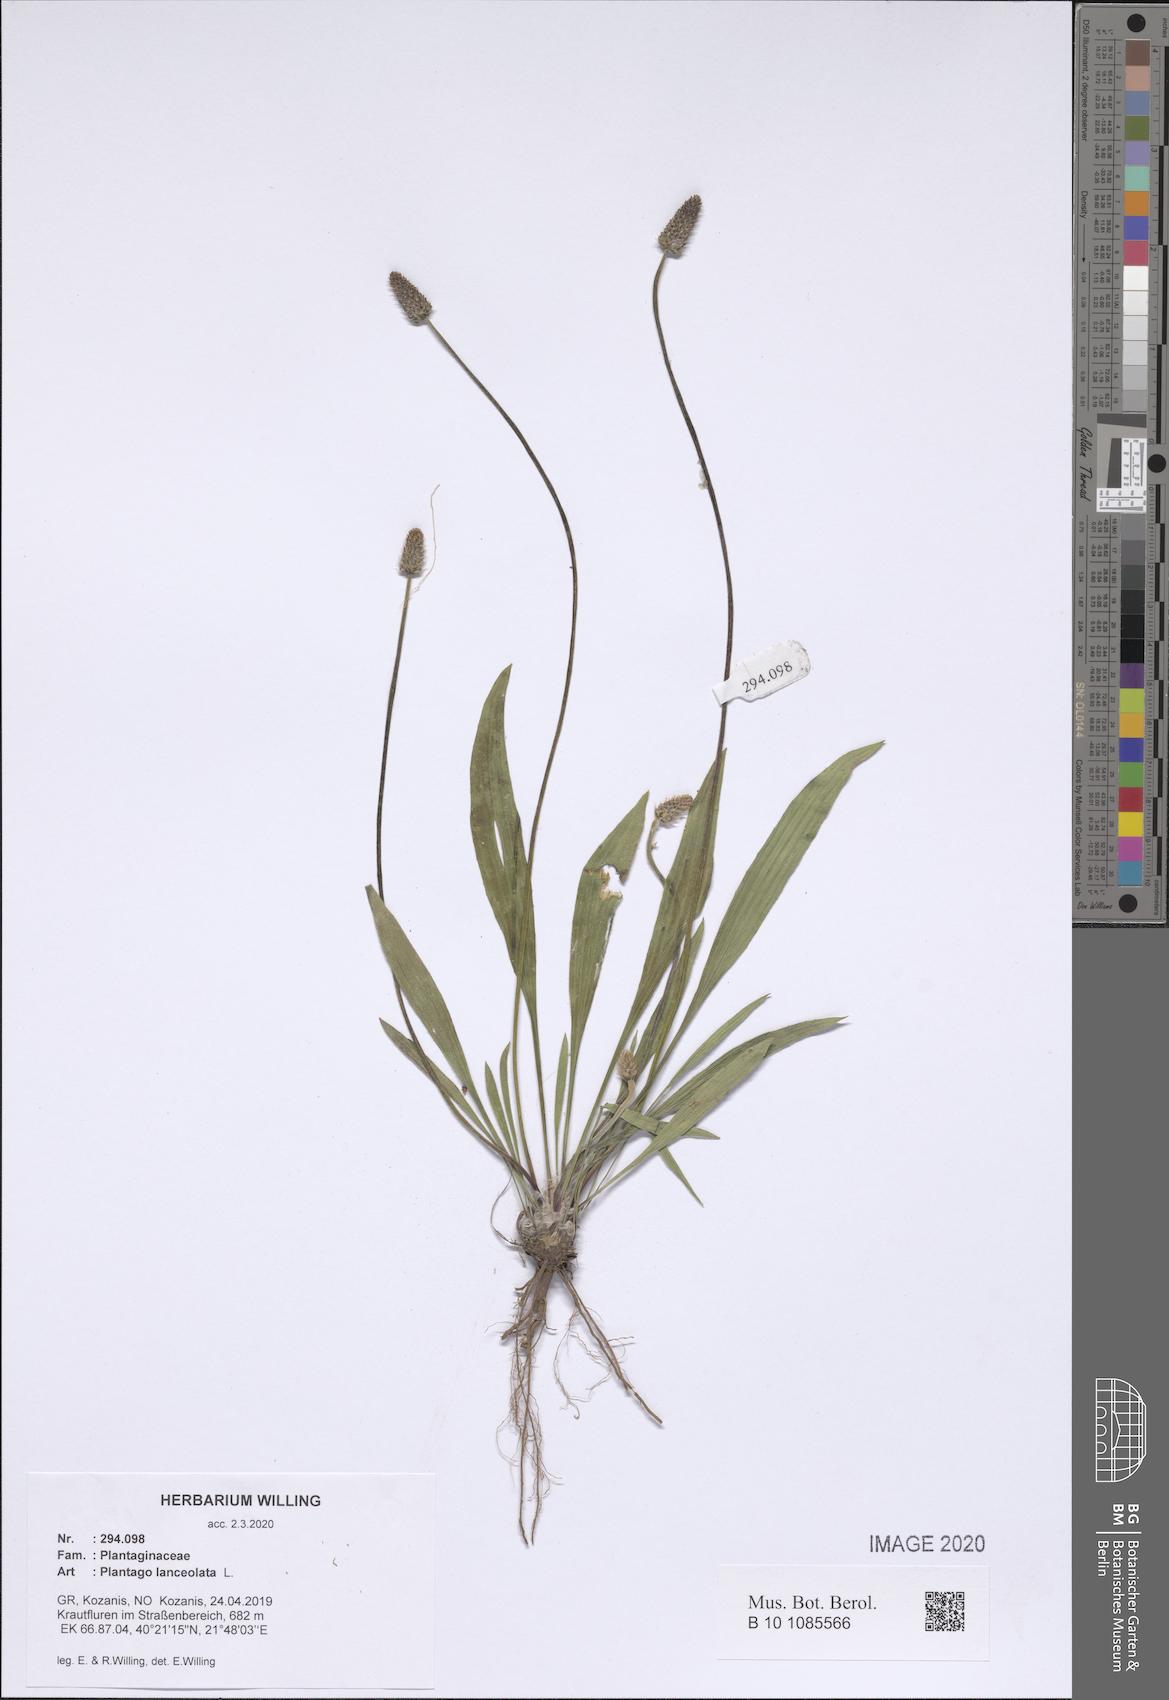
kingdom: Plantae
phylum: Tracheophyta
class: Magnoliopsida
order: Lamiales
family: Plantaginaceae
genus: Plantago
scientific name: Plantago lanceolata
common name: Ribwort plantain
